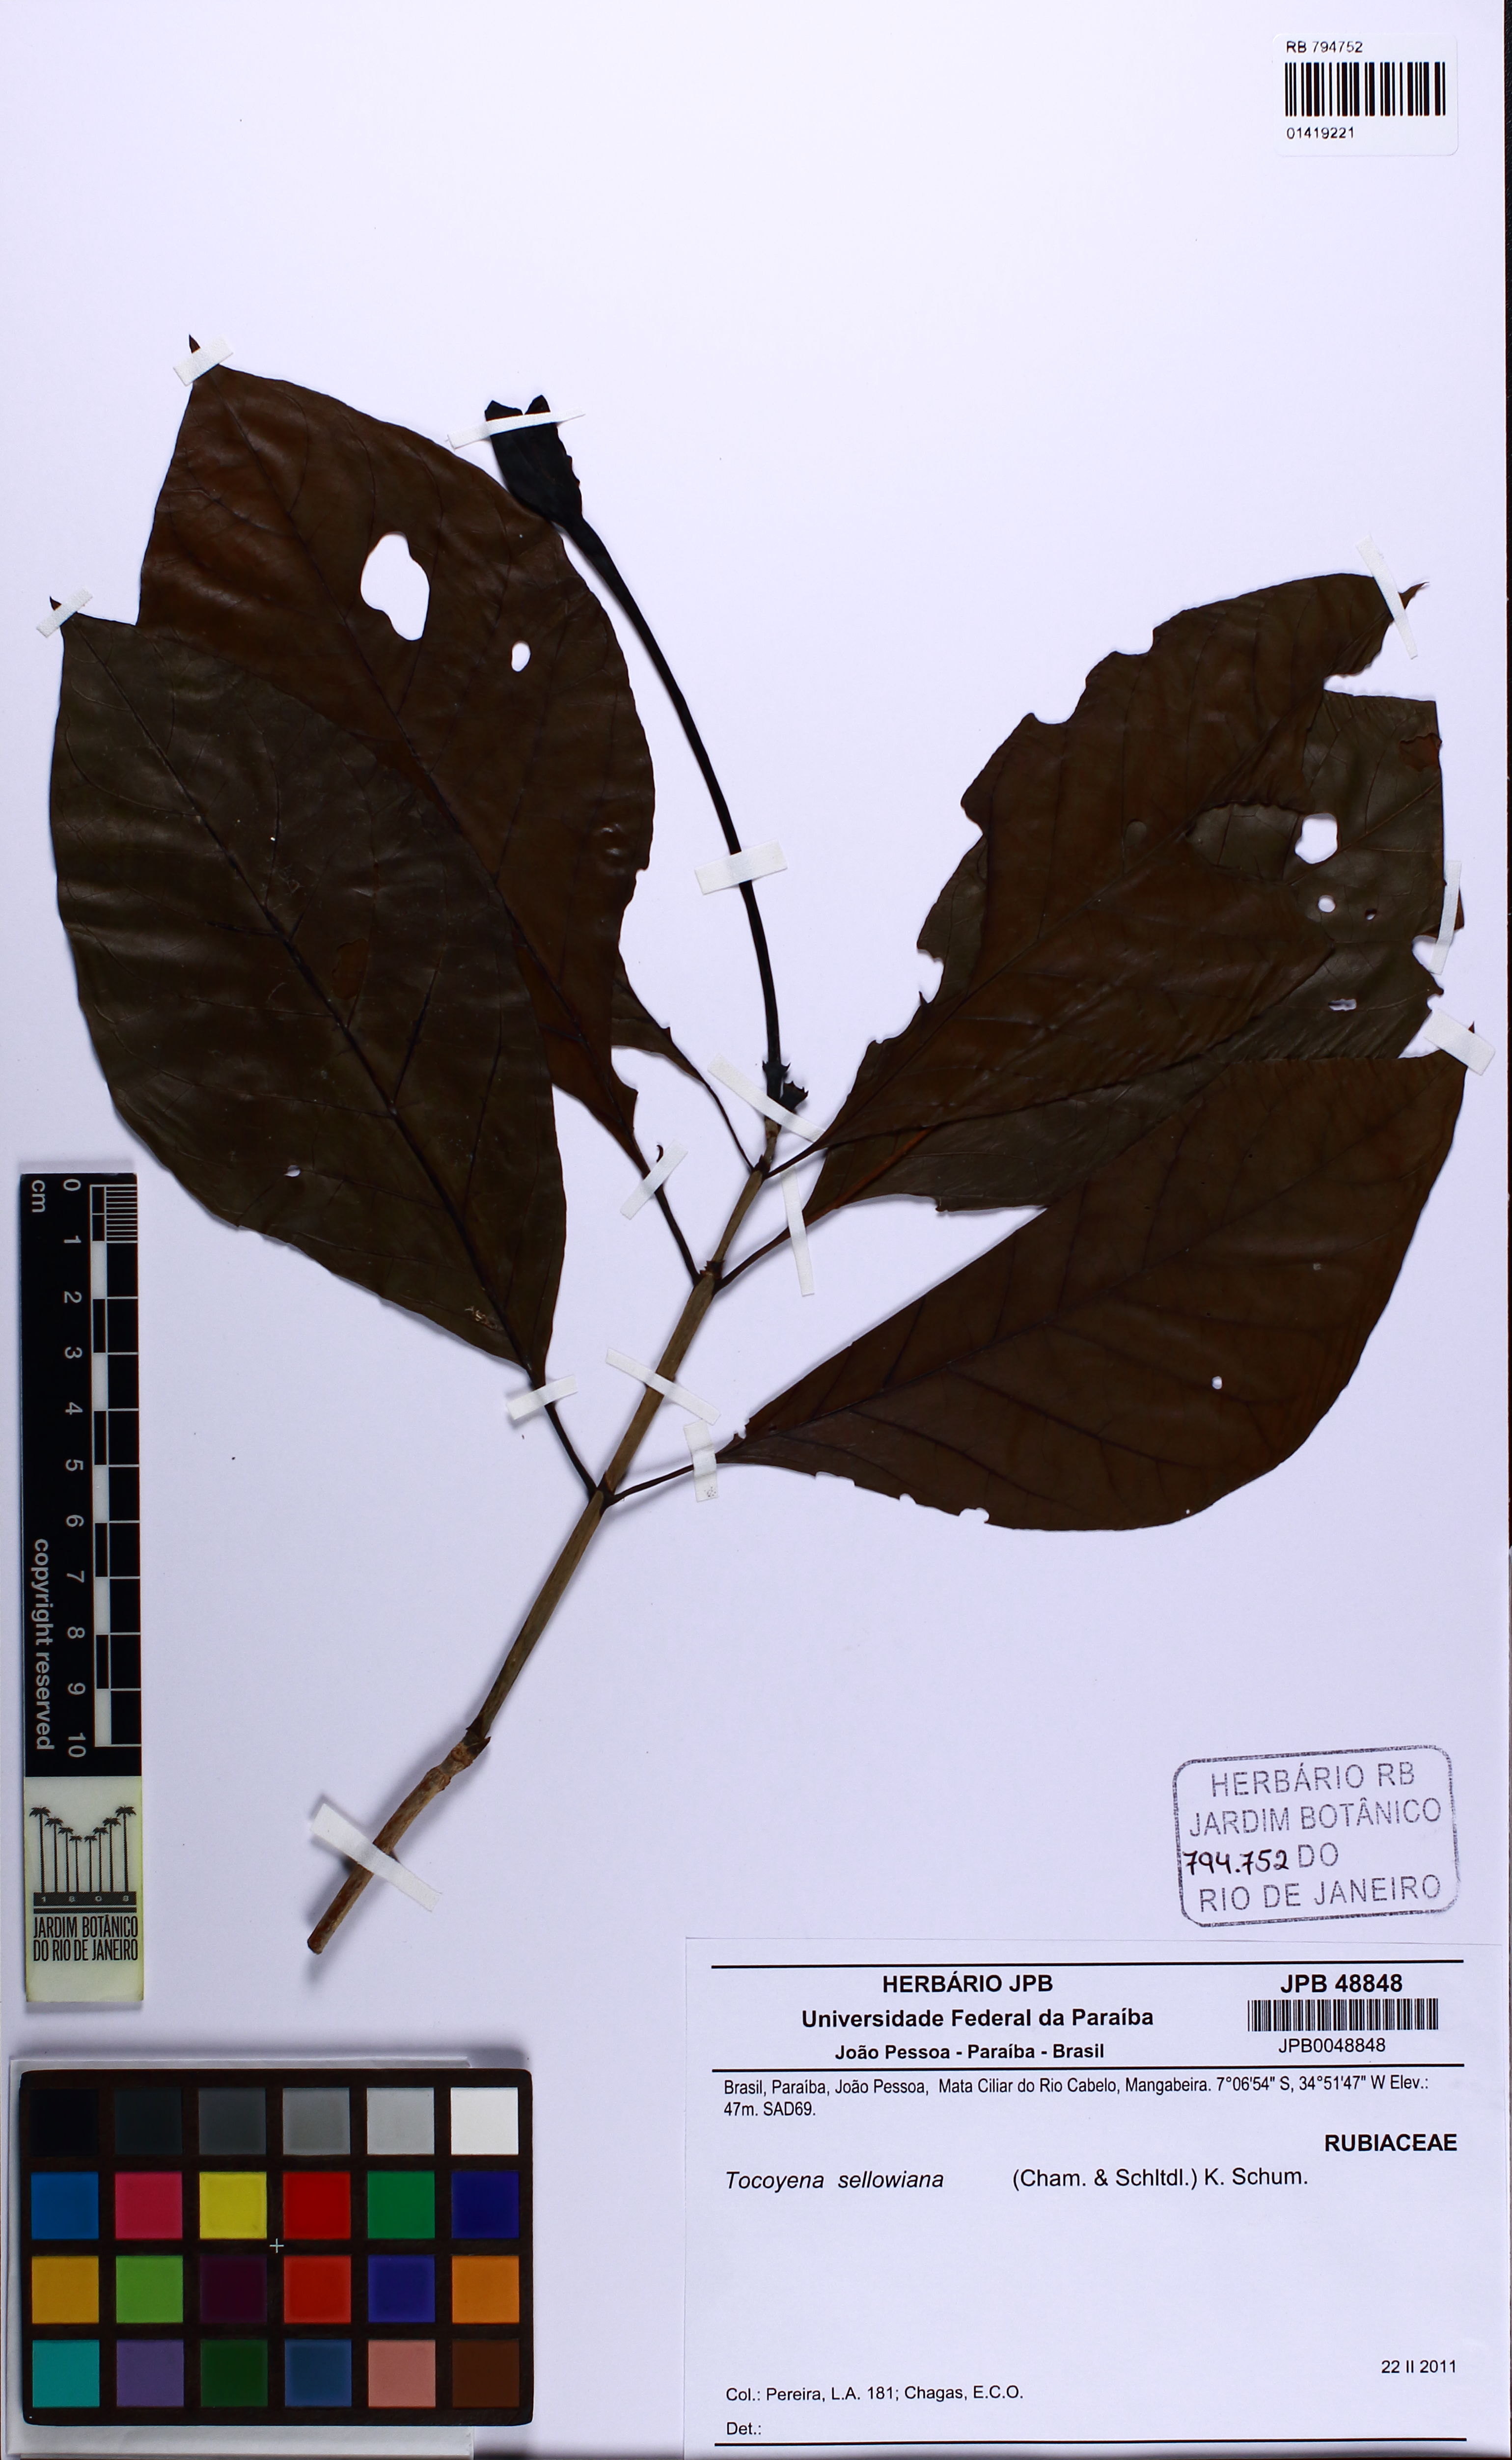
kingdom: Plantae
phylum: Tracheophyta
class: Magnoliopsida
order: Gentianales
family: Rubiaceae
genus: Tocoyena
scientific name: Tocoyena sellowiana
